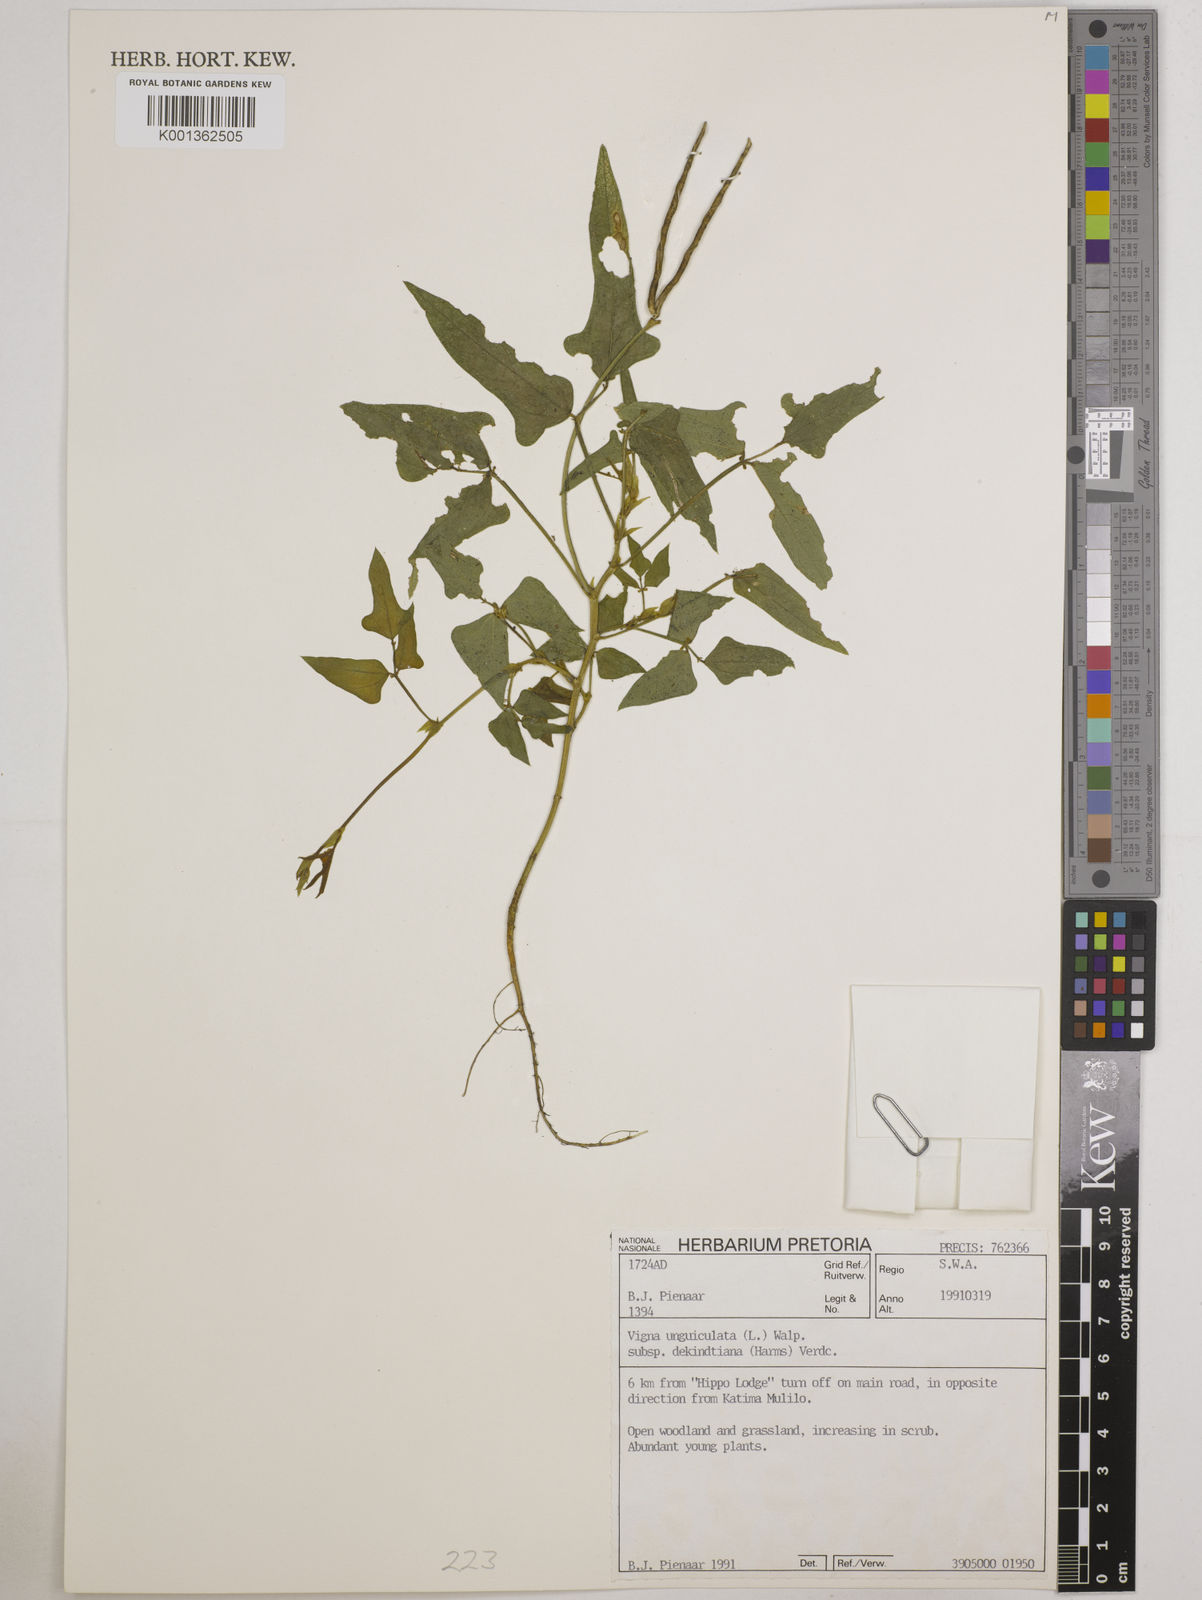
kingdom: Plantae
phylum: Tracheophyta
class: Magnoliopsida
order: Fabales
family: Fabaceae
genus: Vigna
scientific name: Vigna
